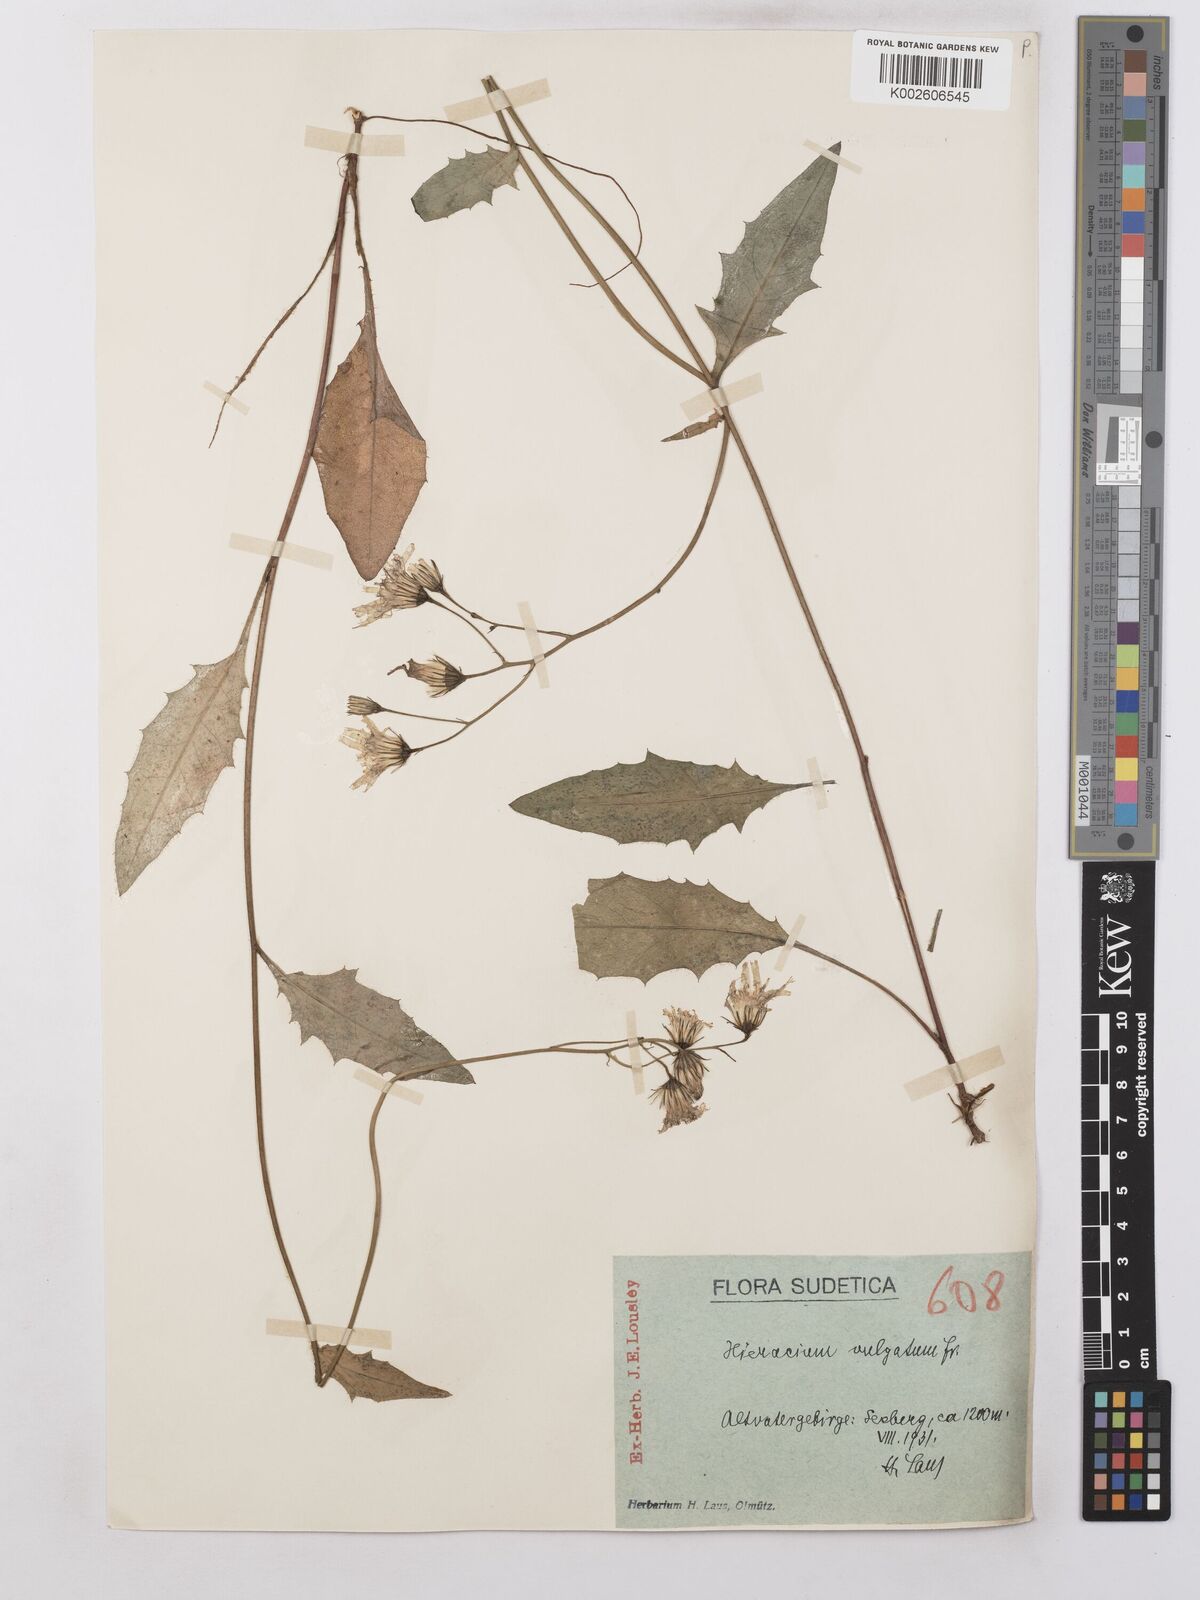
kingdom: Plantae
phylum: Tracheophyta
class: Magnoliopsida
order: Asterales
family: Asteraceae
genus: Hieracium
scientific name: Hieracium lachenalii
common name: Common hawkweed
